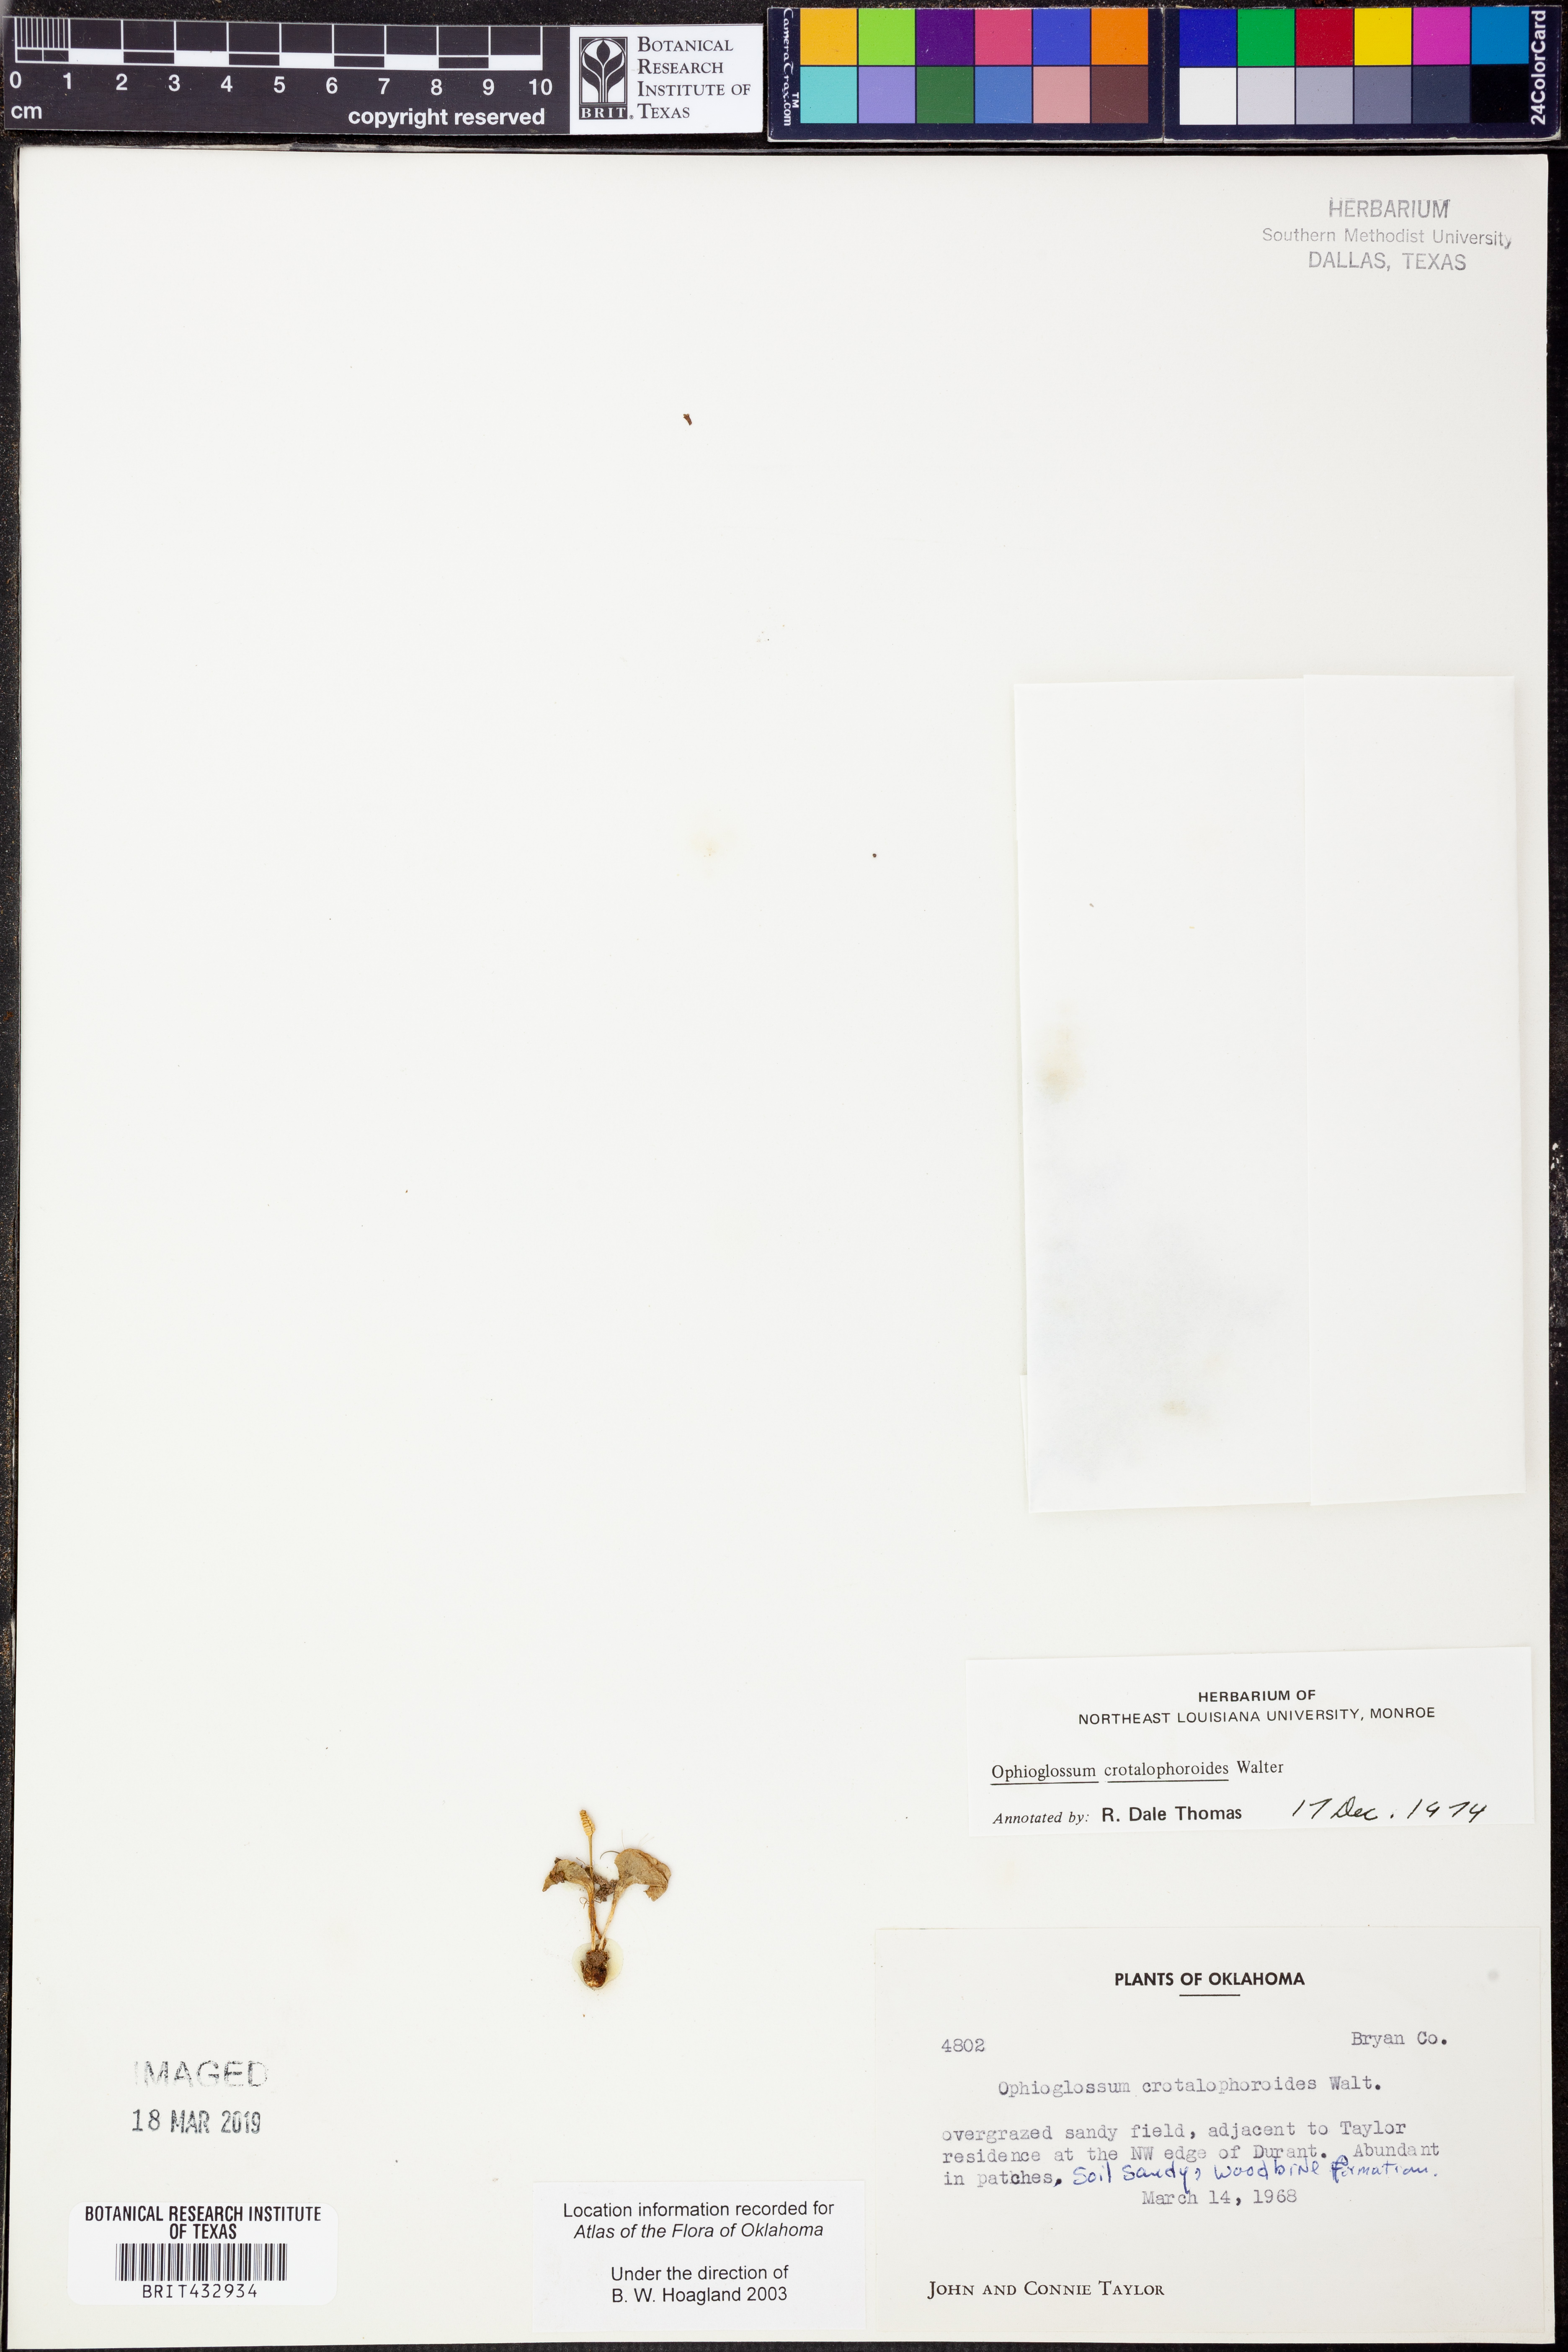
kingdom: Plantae
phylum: Tracheophyta
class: Polypodiopsida
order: Ophioglossales
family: Ophioglossaceae
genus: Ophioglossum
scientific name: Ophioglossum crotalophoroides
